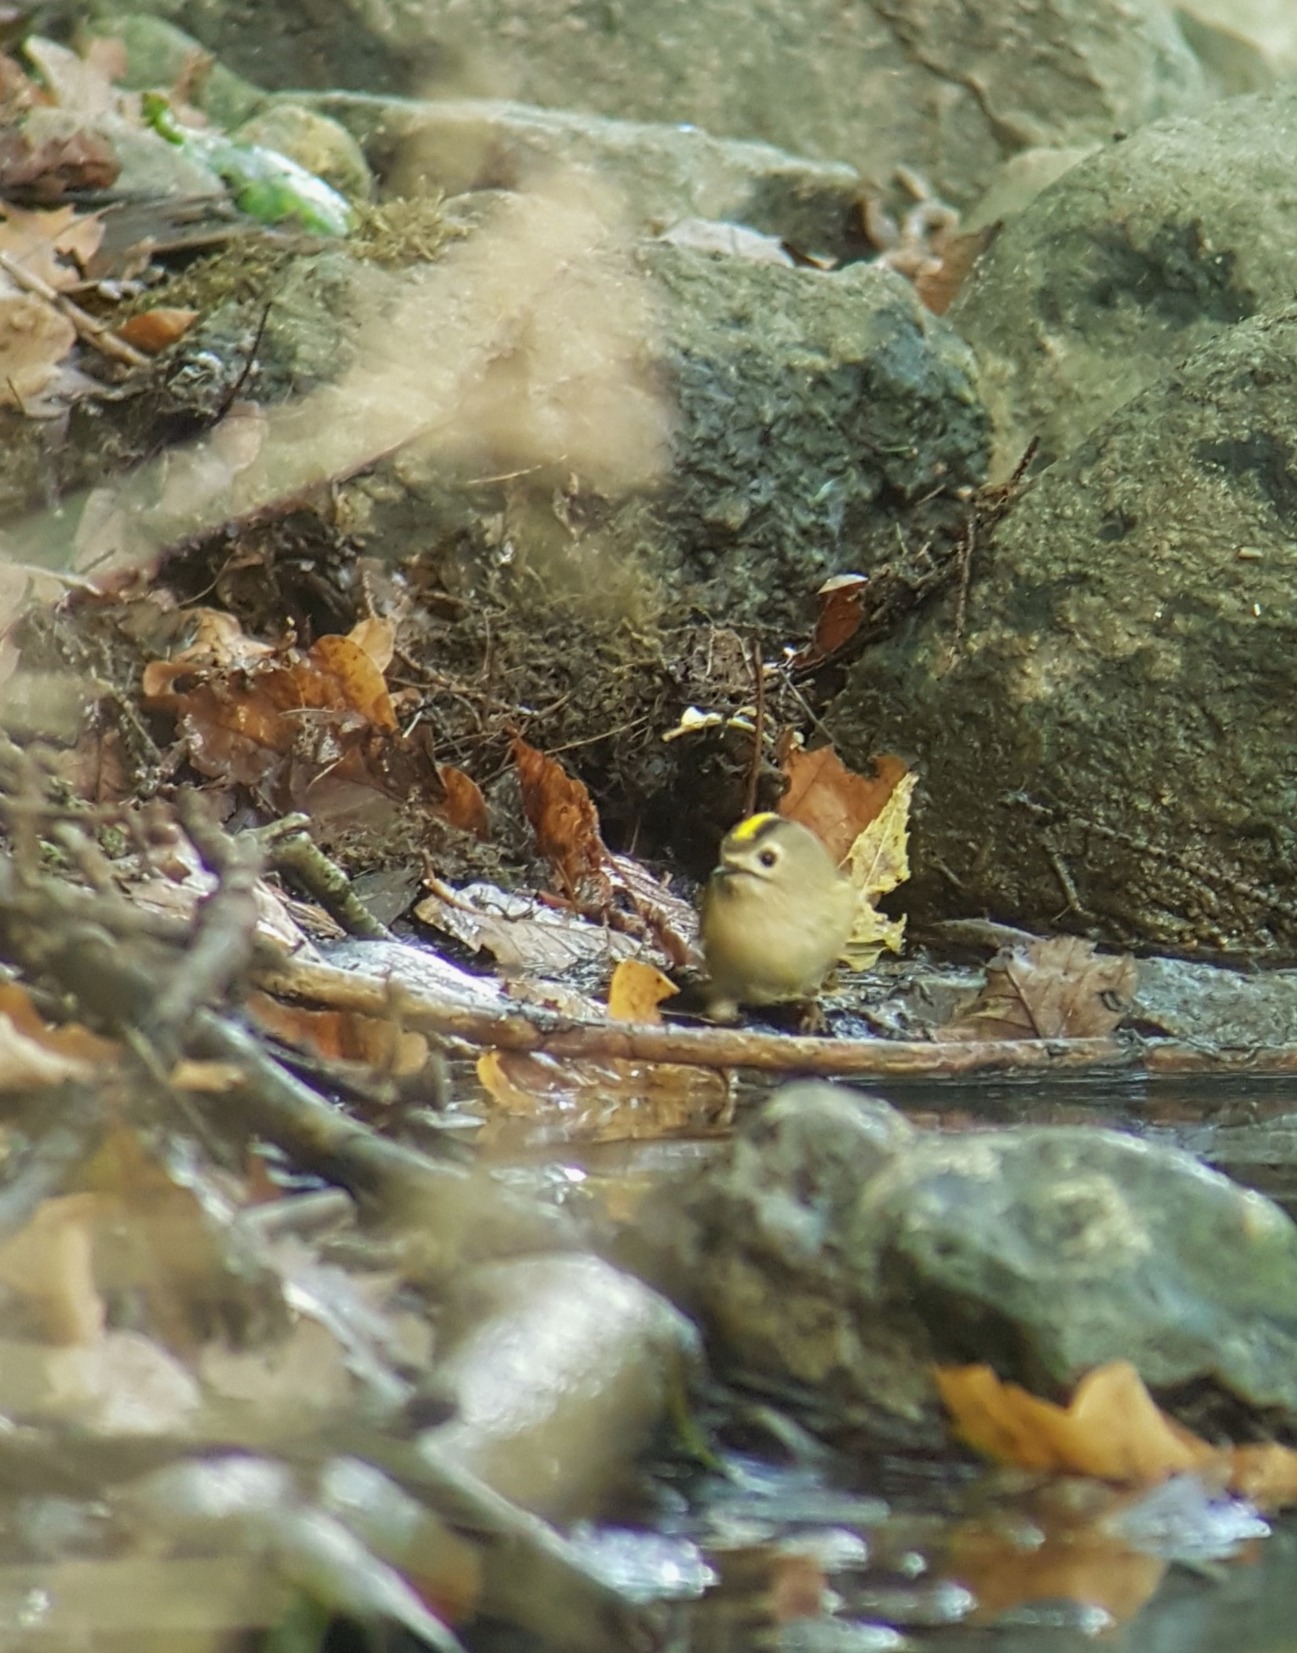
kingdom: Animalia
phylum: Chordata
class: Aves
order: Passeriformes
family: Regulidae
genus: Regulus
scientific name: Regulus regulus
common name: Fuglekonge
